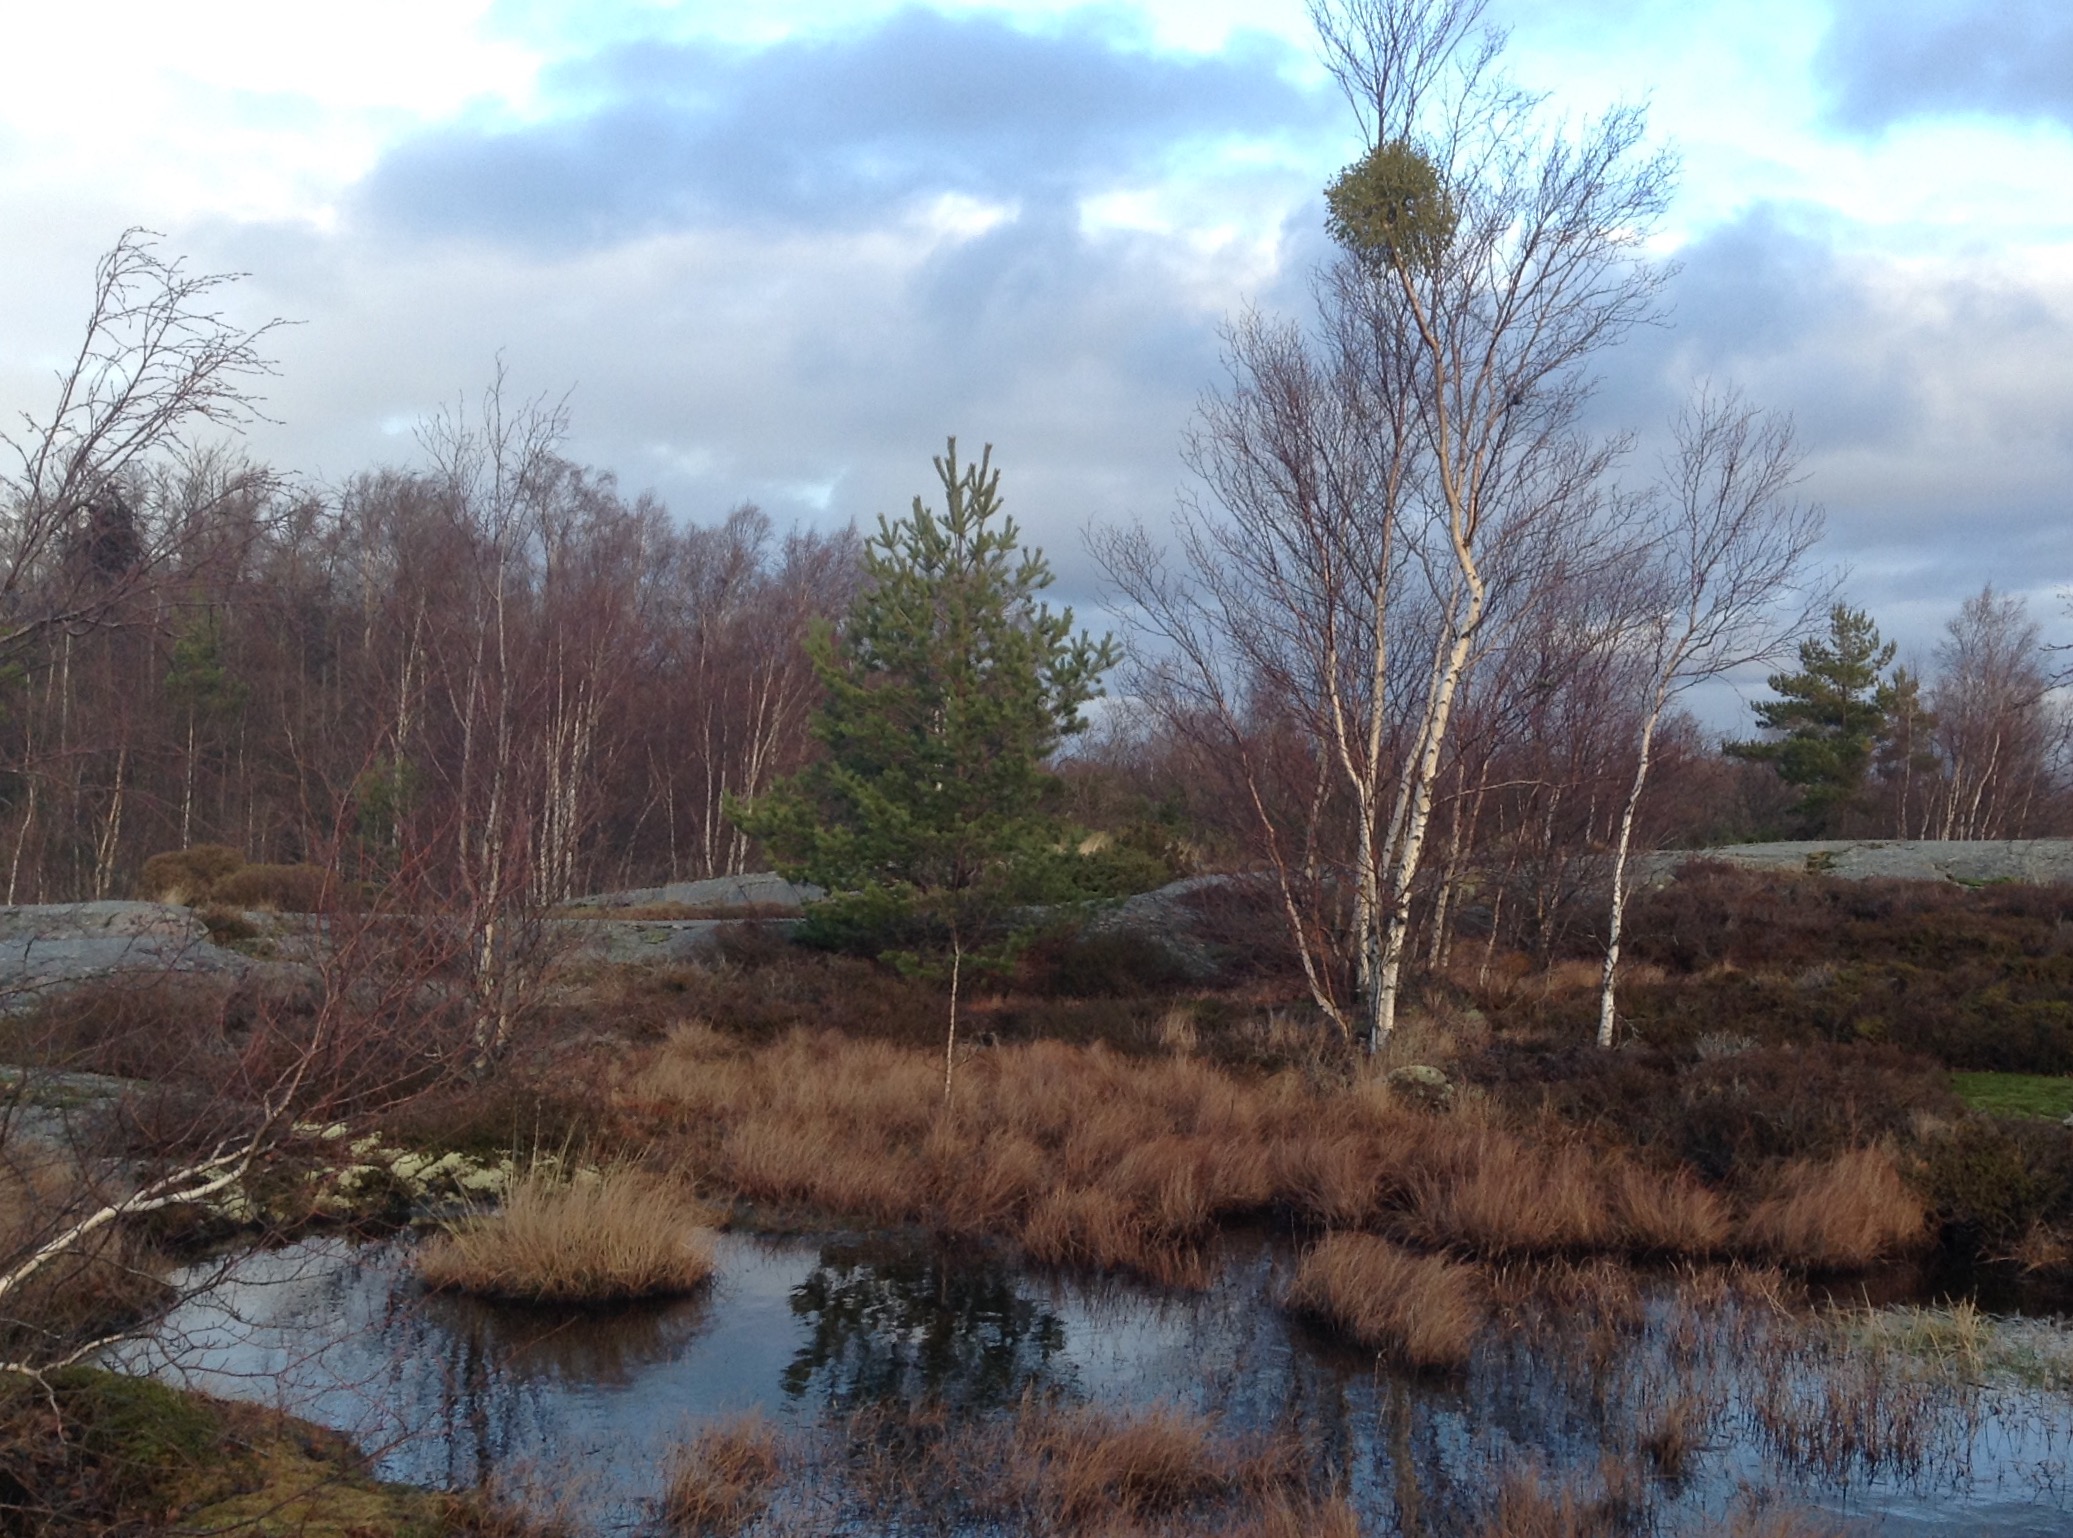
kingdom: Plantae
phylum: Tracheophyta
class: Magnoliopsida
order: Santalales
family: Viscaceae
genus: Viscum
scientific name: Viscum album
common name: Mistletoe
